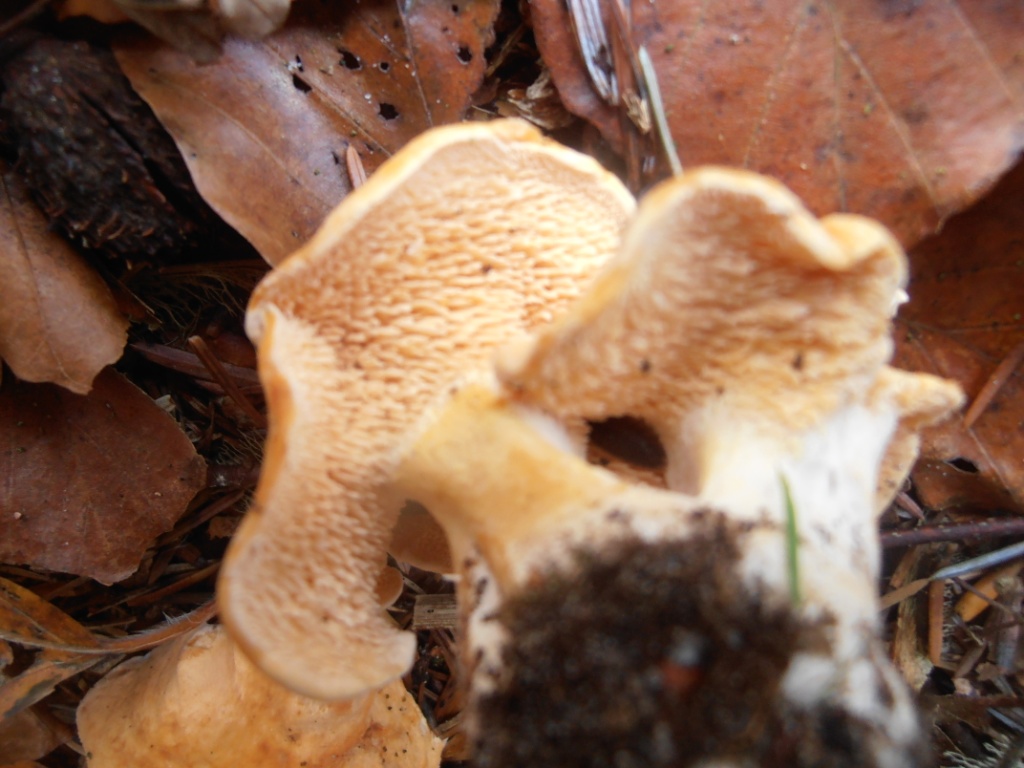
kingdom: Fungi
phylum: Basidiomycota
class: Agaricomycetes
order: Cantharellales
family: Hydnaceae
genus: Hydnum
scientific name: Hydnum ellipsosporum
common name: tandet pigsvamp
